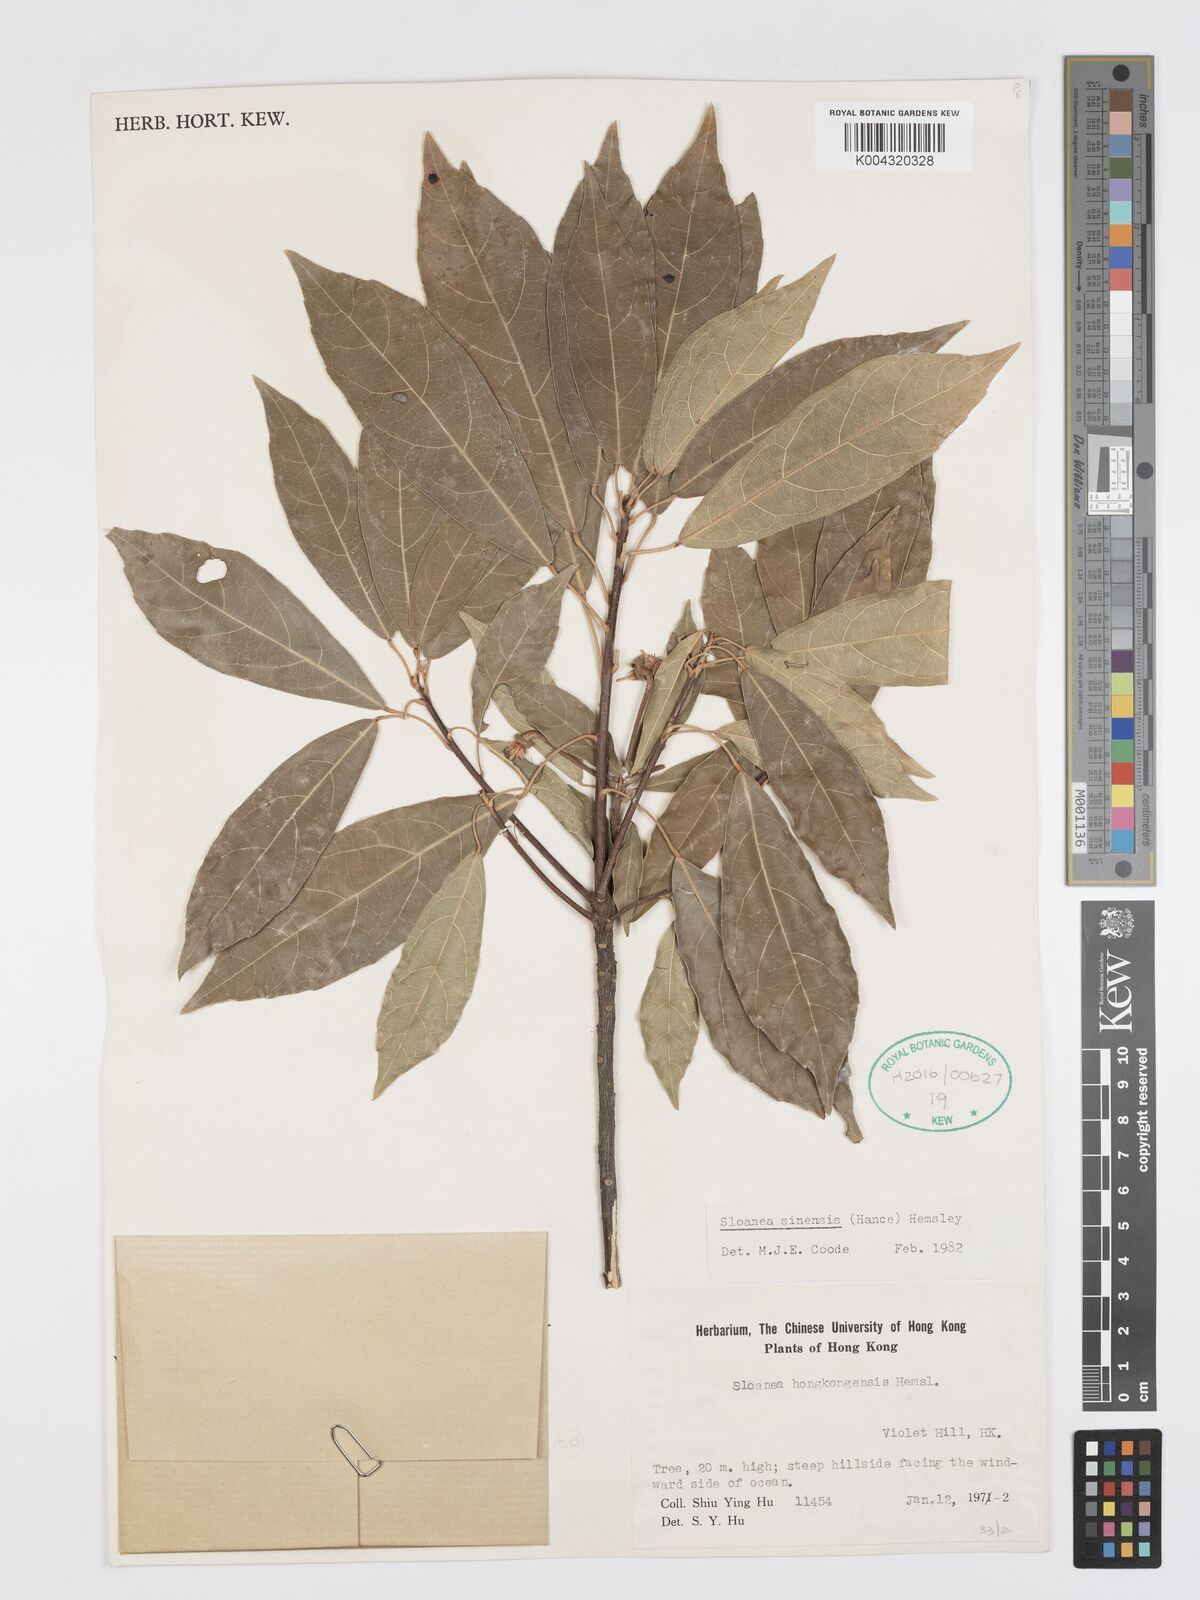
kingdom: Plantae
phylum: Tracheophyta
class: Magnoliopsida
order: Oxalidales
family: Elaeocarpaceae
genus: Sloanea
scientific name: Sloanea sinensis
